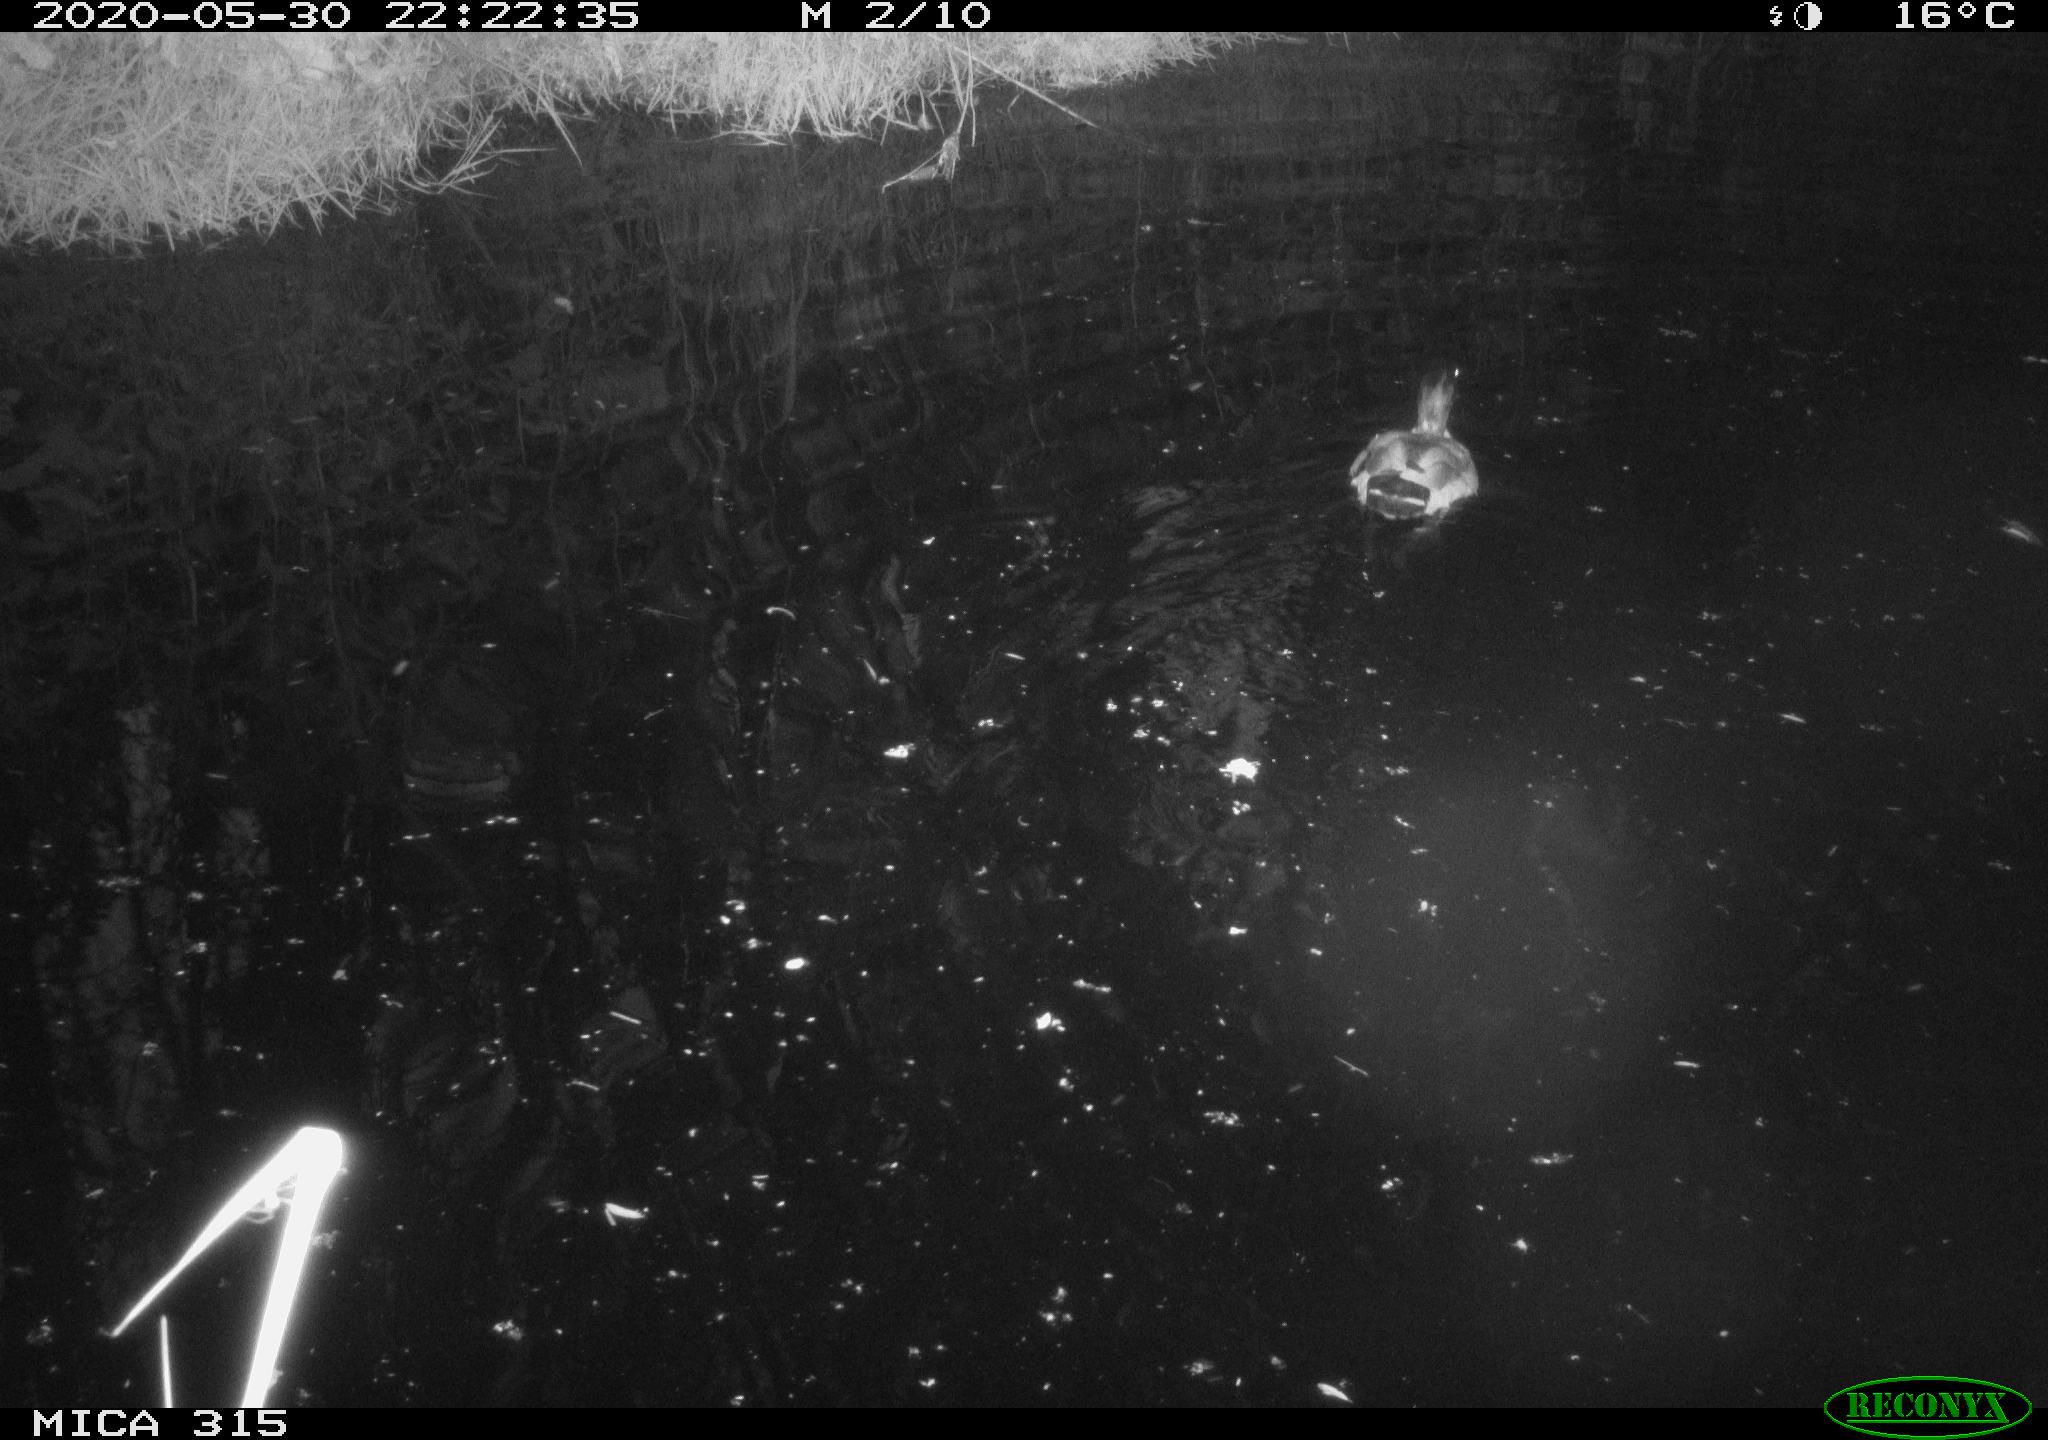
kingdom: Animalia
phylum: Chordata
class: Aves
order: Anseriformes
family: Anatidae
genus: Anas
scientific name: Anas platyrhynchos
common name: Mallard
